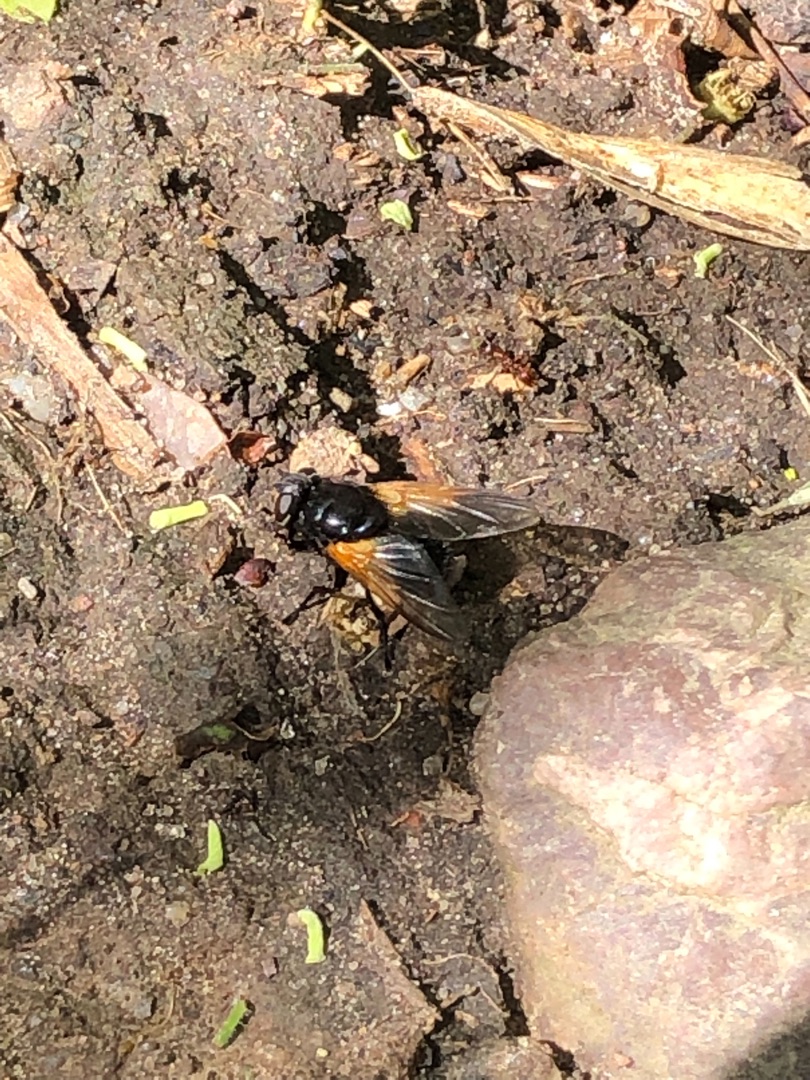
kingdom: Animalia
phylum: Arthropoda
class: Insecta
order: Diptera
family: Muscidae
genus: Mesembrina
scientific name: Mesembrina meridiana
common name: Gulvinget flue
